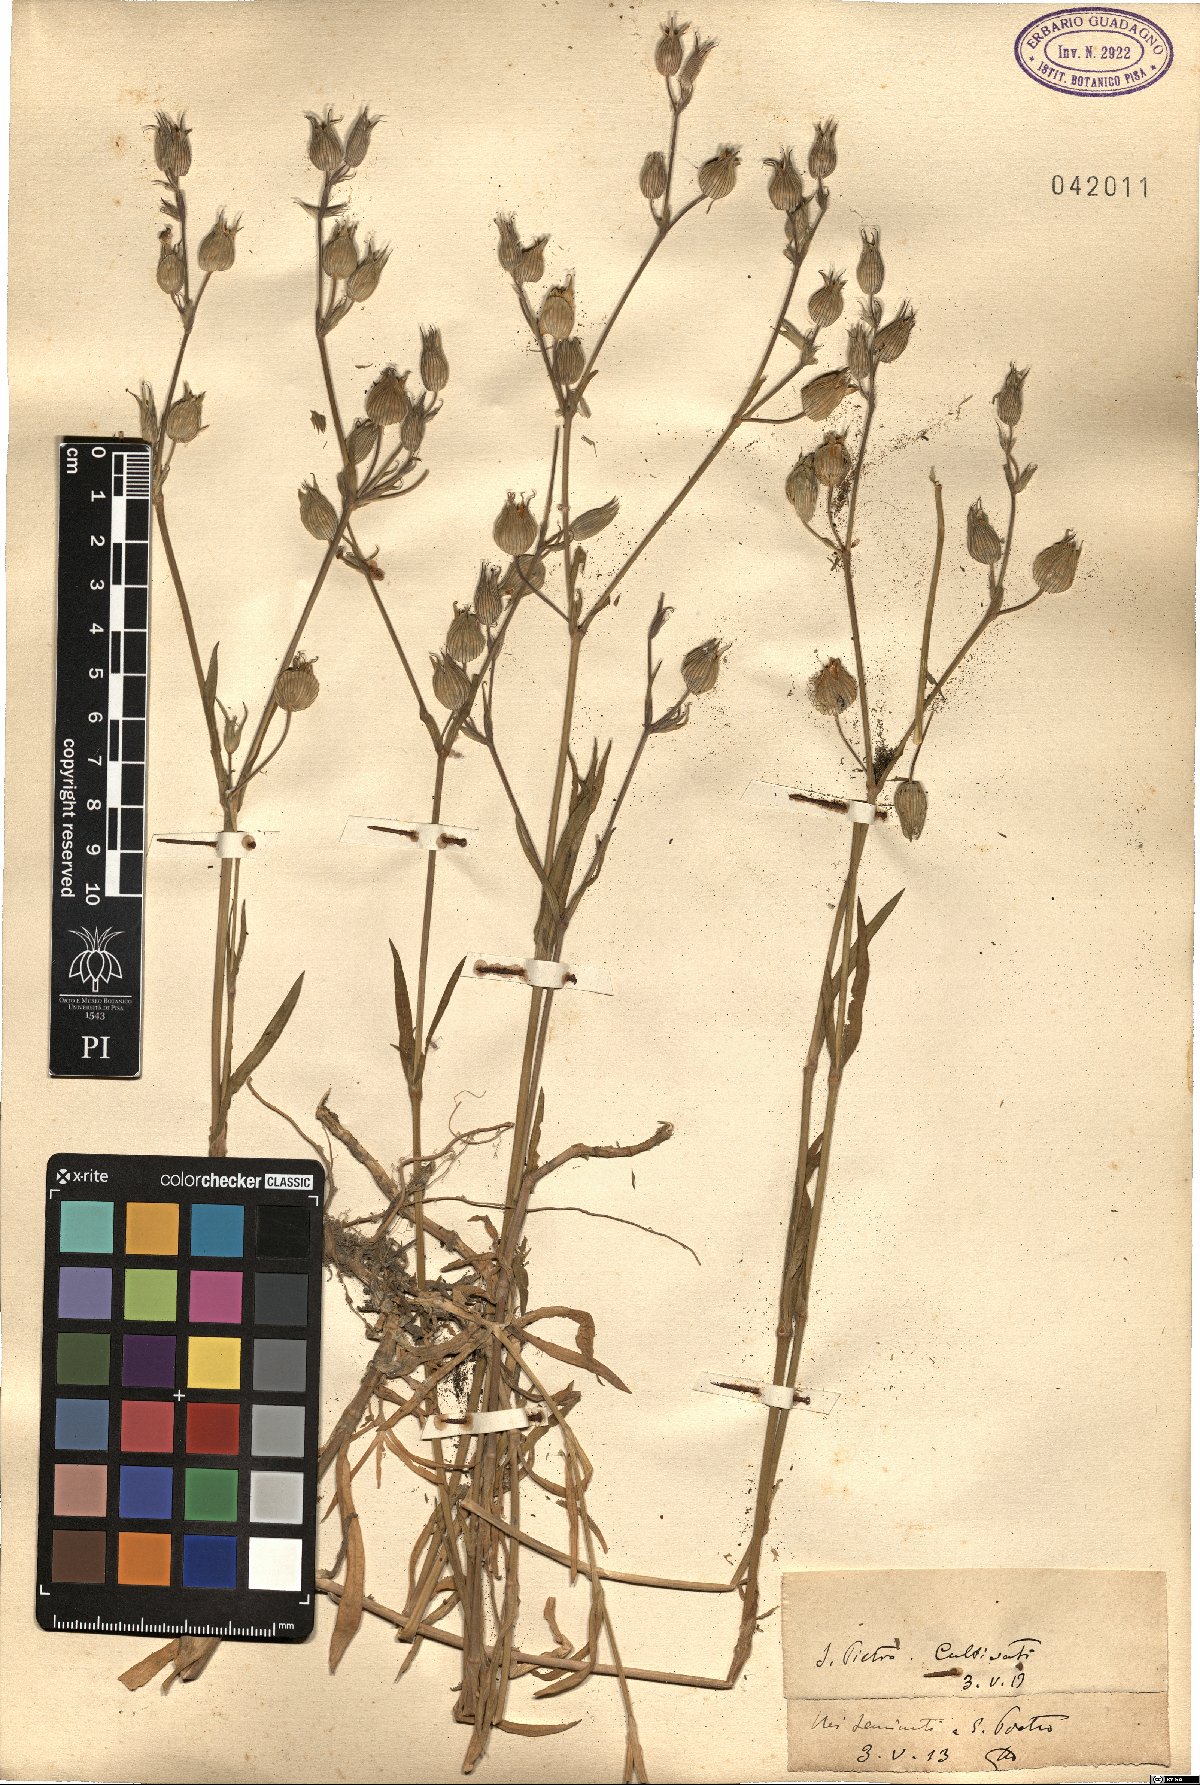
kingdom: Plantae
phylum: Tracheophyta
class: Magnoliopsida
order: Caryophyllales
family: Caryophyllaceae
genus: Silene
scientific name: Silene
